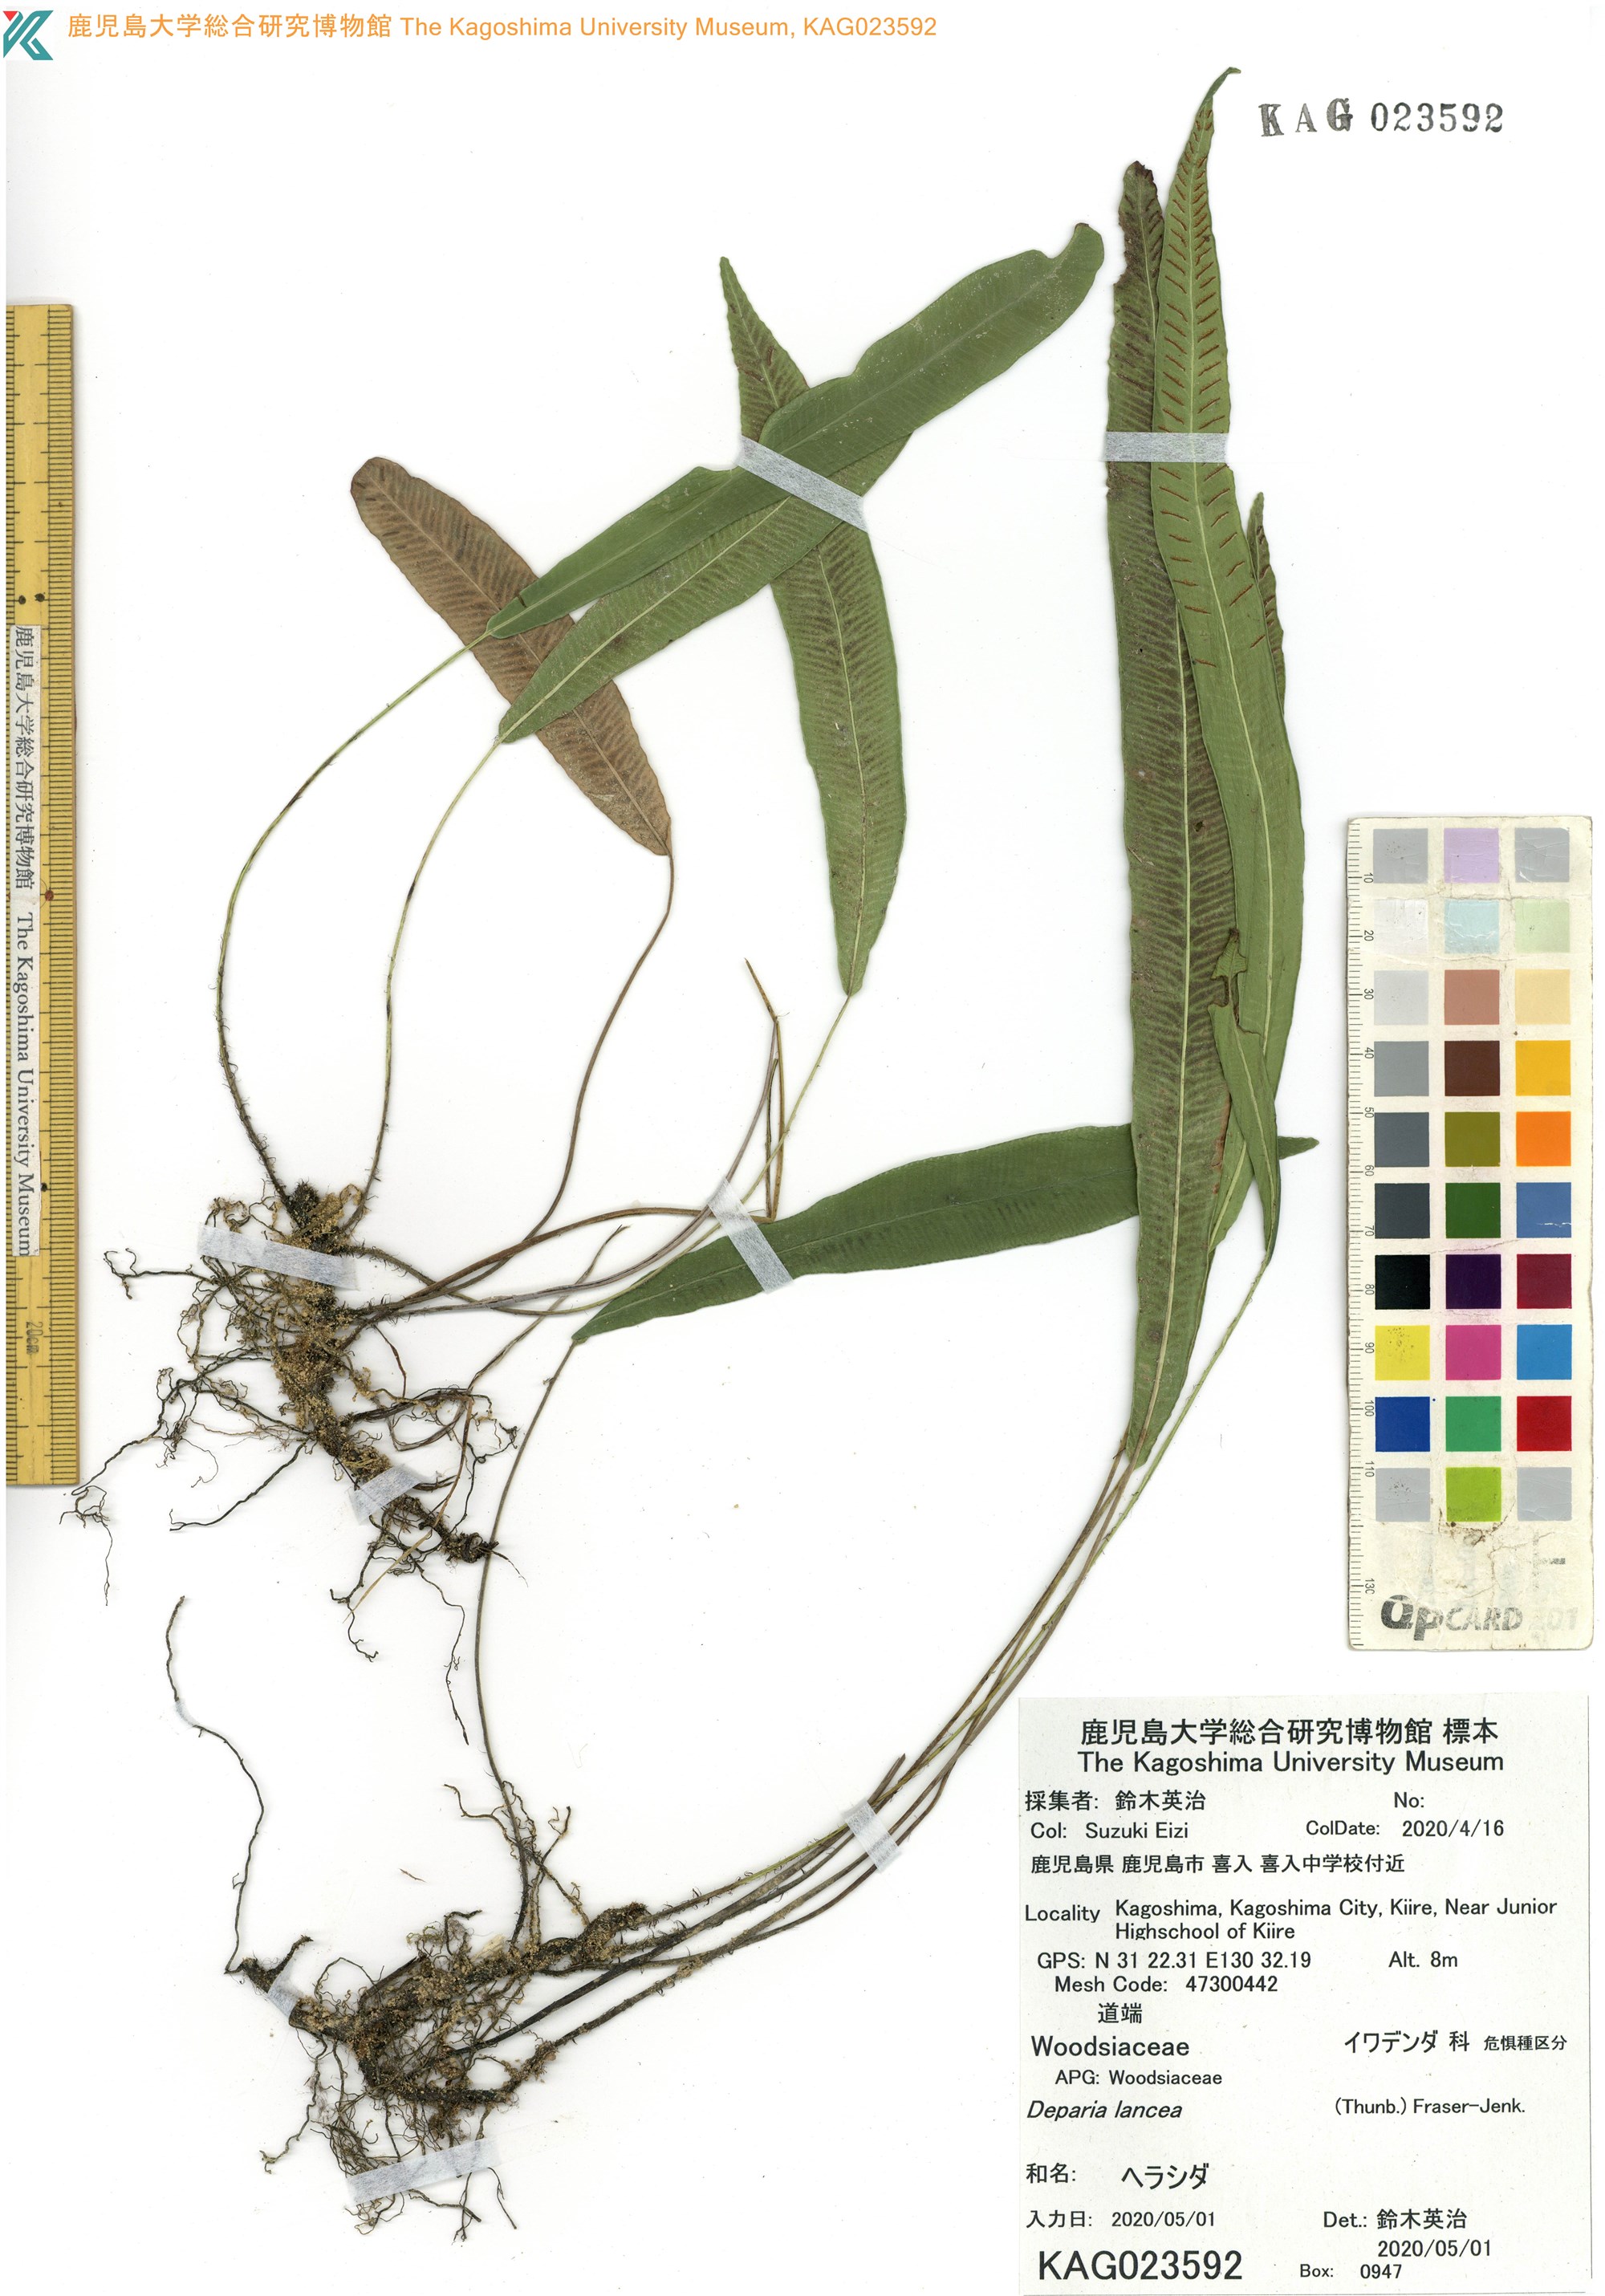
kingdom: Plantae
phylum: Tracheophyta
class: Polypodiopsida
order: Polypodiales
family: Athyriaceae
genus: Deparia
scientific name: Deparia lancea
